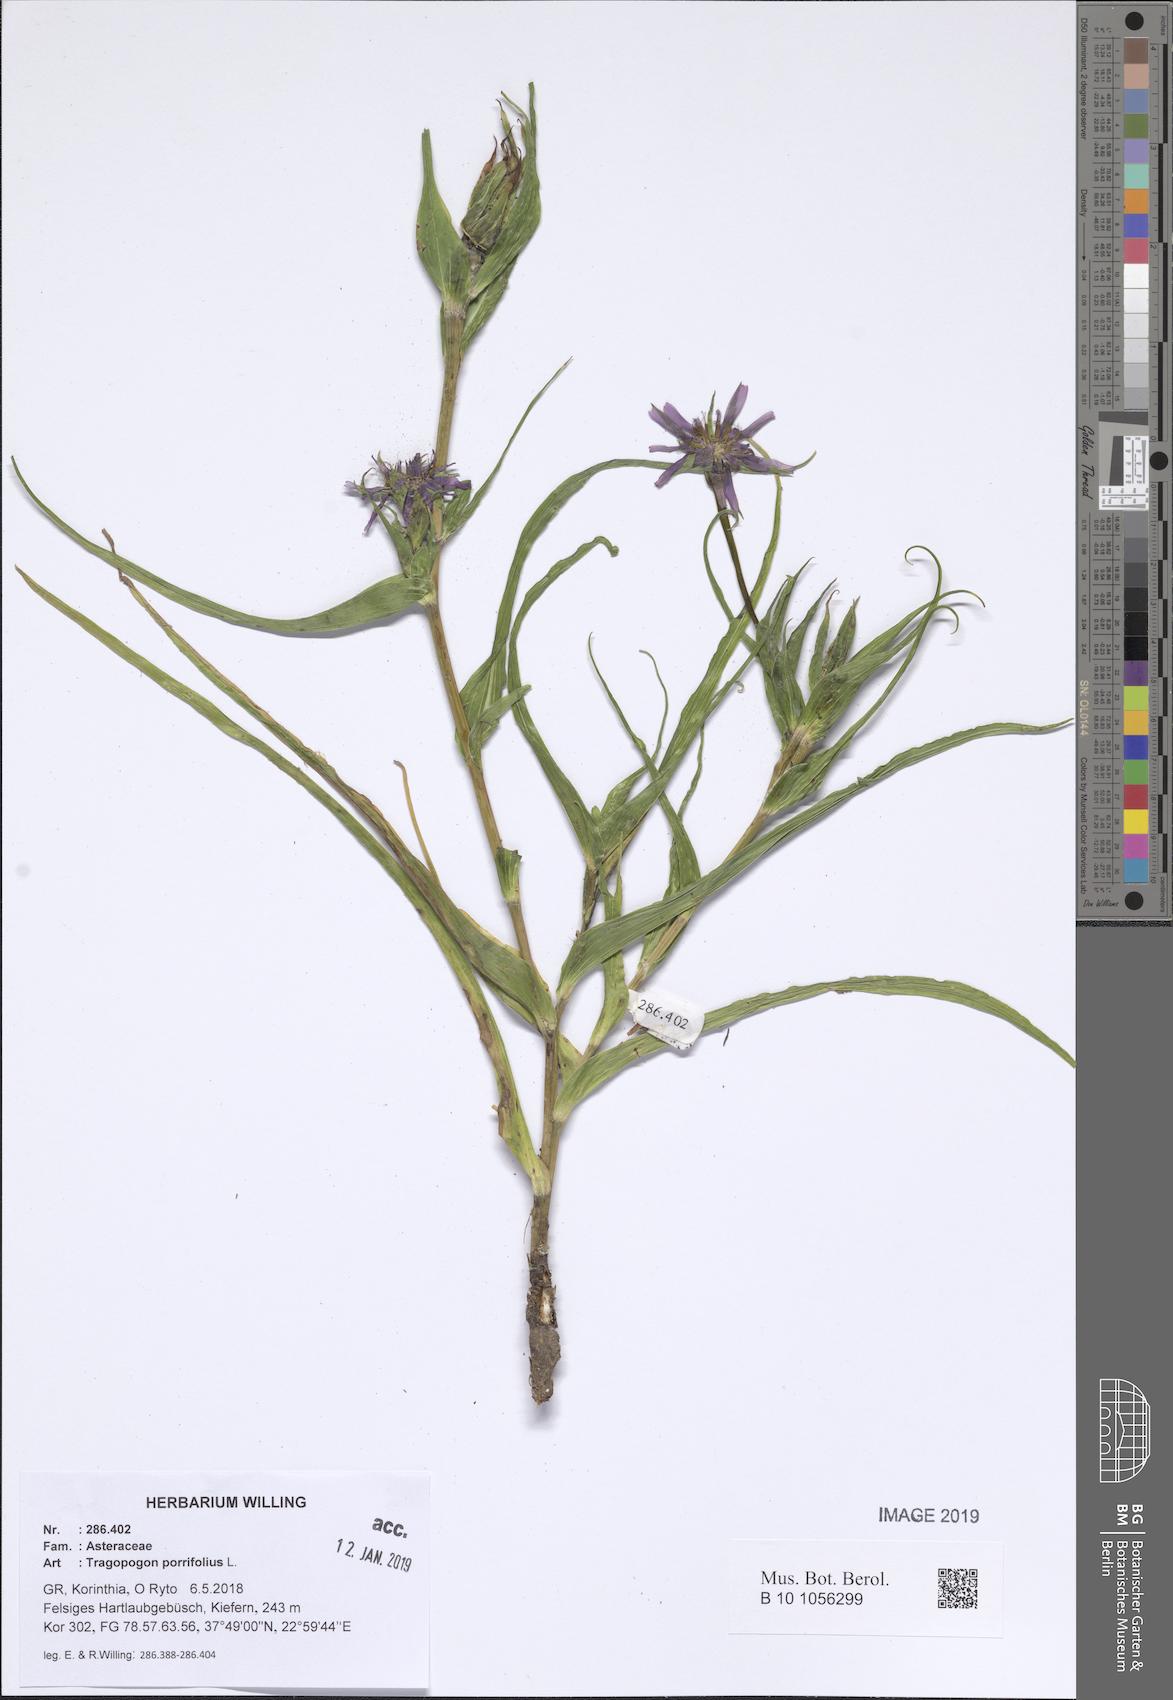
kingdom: Plantae
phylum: Tracheophyta
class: Magnoliopsida
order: Asterales
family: Asteraceae
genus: Tragopogon
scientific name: Tragopogon porrifolius
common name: Salsify
